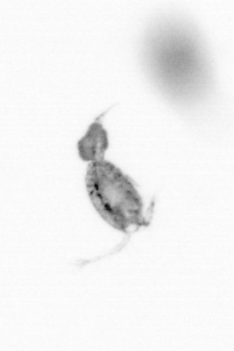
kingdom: Animalia
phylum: Arthropoda
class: Copepoda
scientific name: Copepoda
